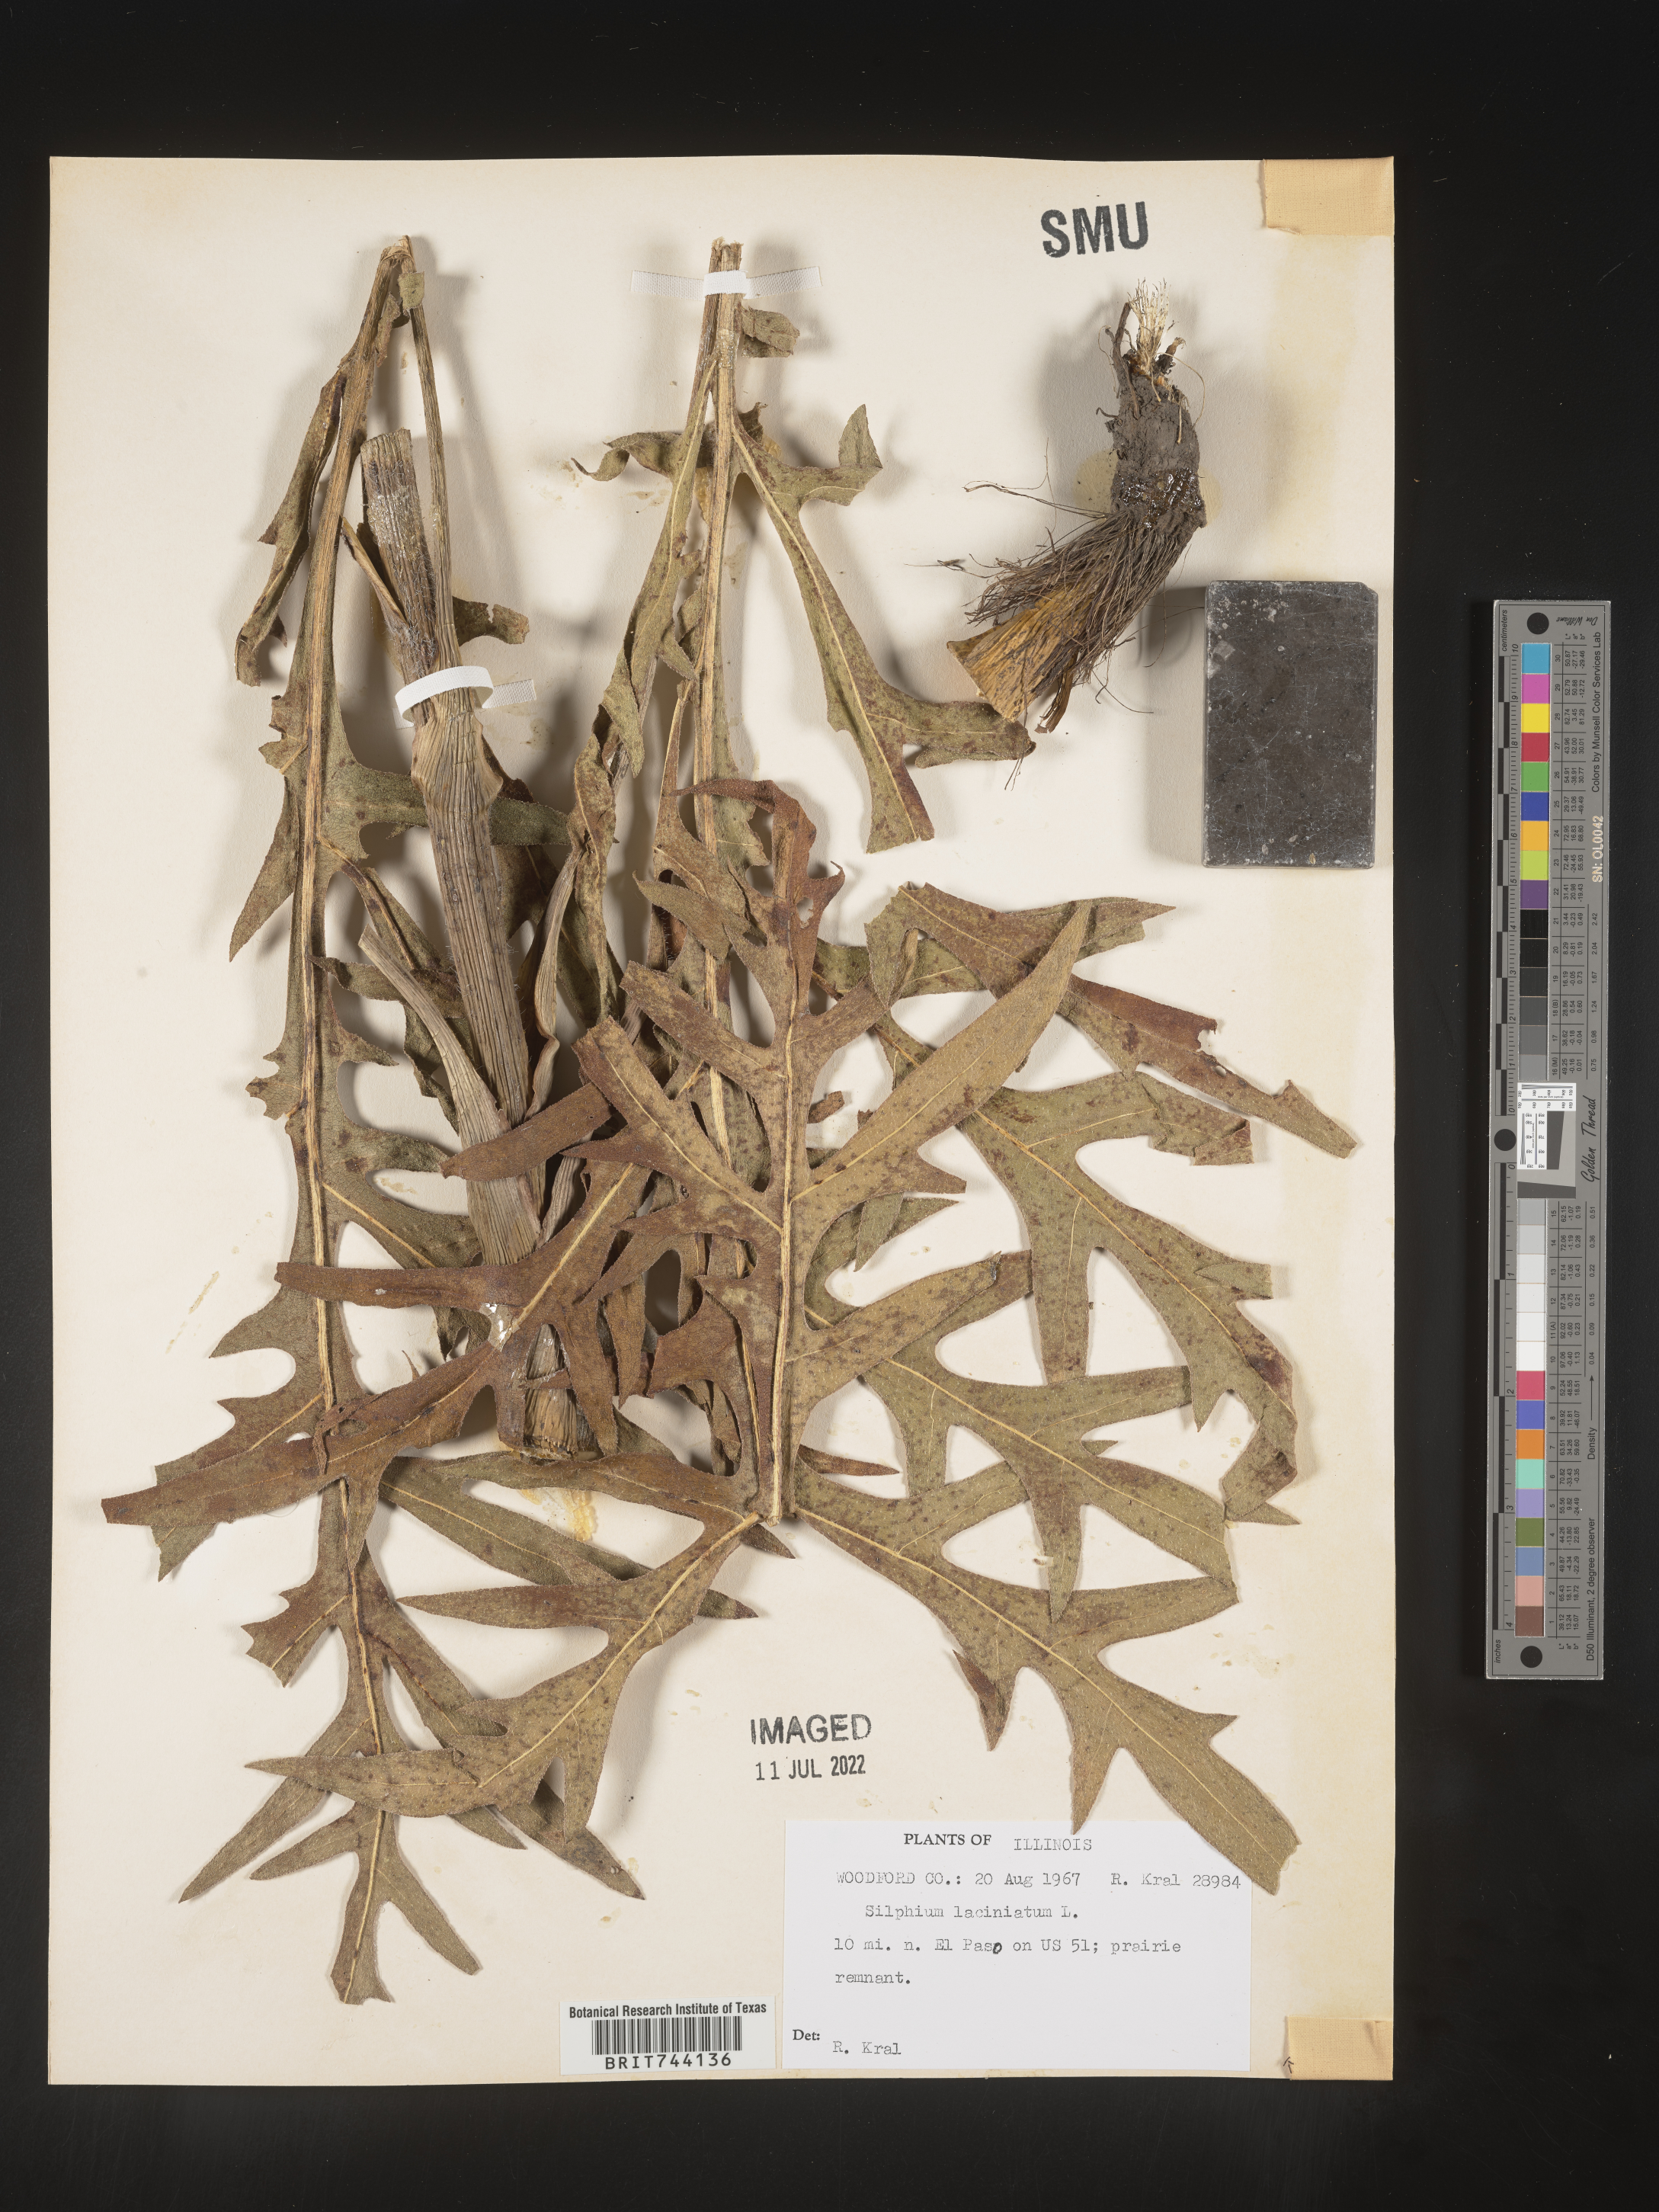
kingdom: Plantae
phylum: Tracheophyta
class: Magnoliopsida
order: Asterales
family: Asteraceae
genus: Silphium
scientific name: Silphium laciniatum
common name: Polarplant
